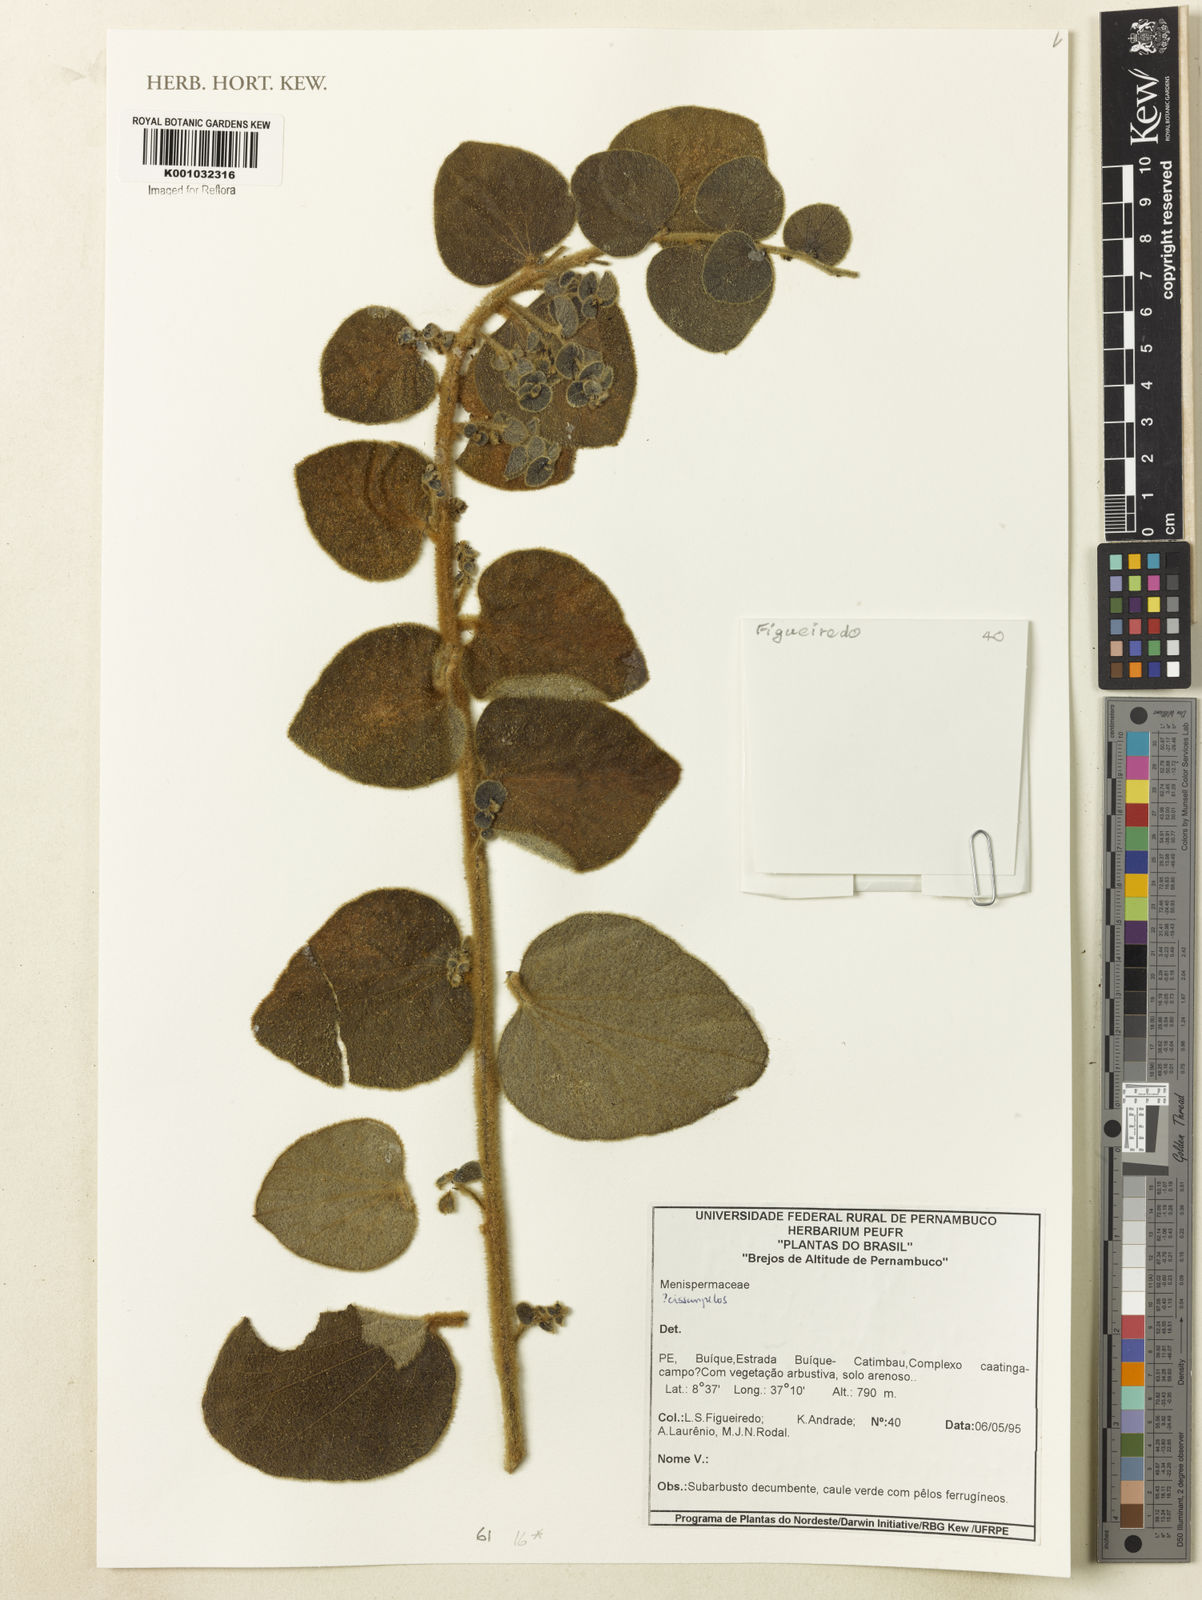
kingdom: Plantae
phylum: Tracheophyta
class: Magnoliopsida
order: Ranunculales
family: Menispermaceae
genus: Cissampelos
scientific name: Cissampelos
